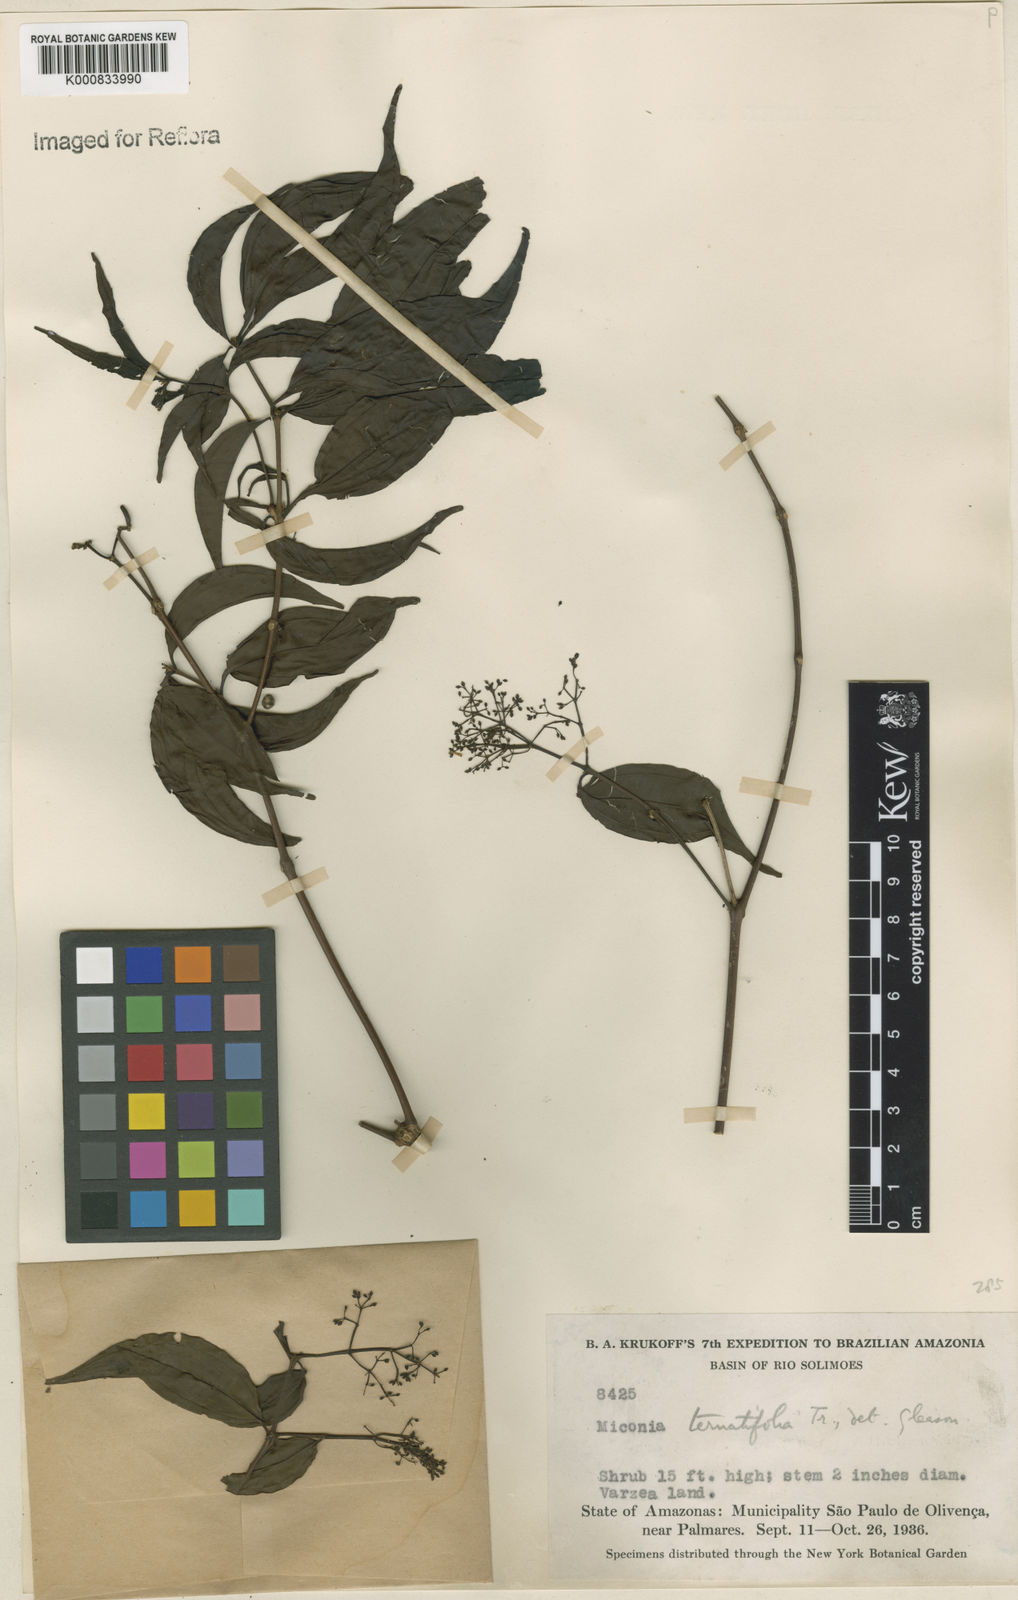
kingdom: Plantae
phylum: Tracheophyta
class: Magnoliopsida
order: Myrtales
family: Melastomataceae
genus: Miconia
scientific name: Miconia ternatifolia
